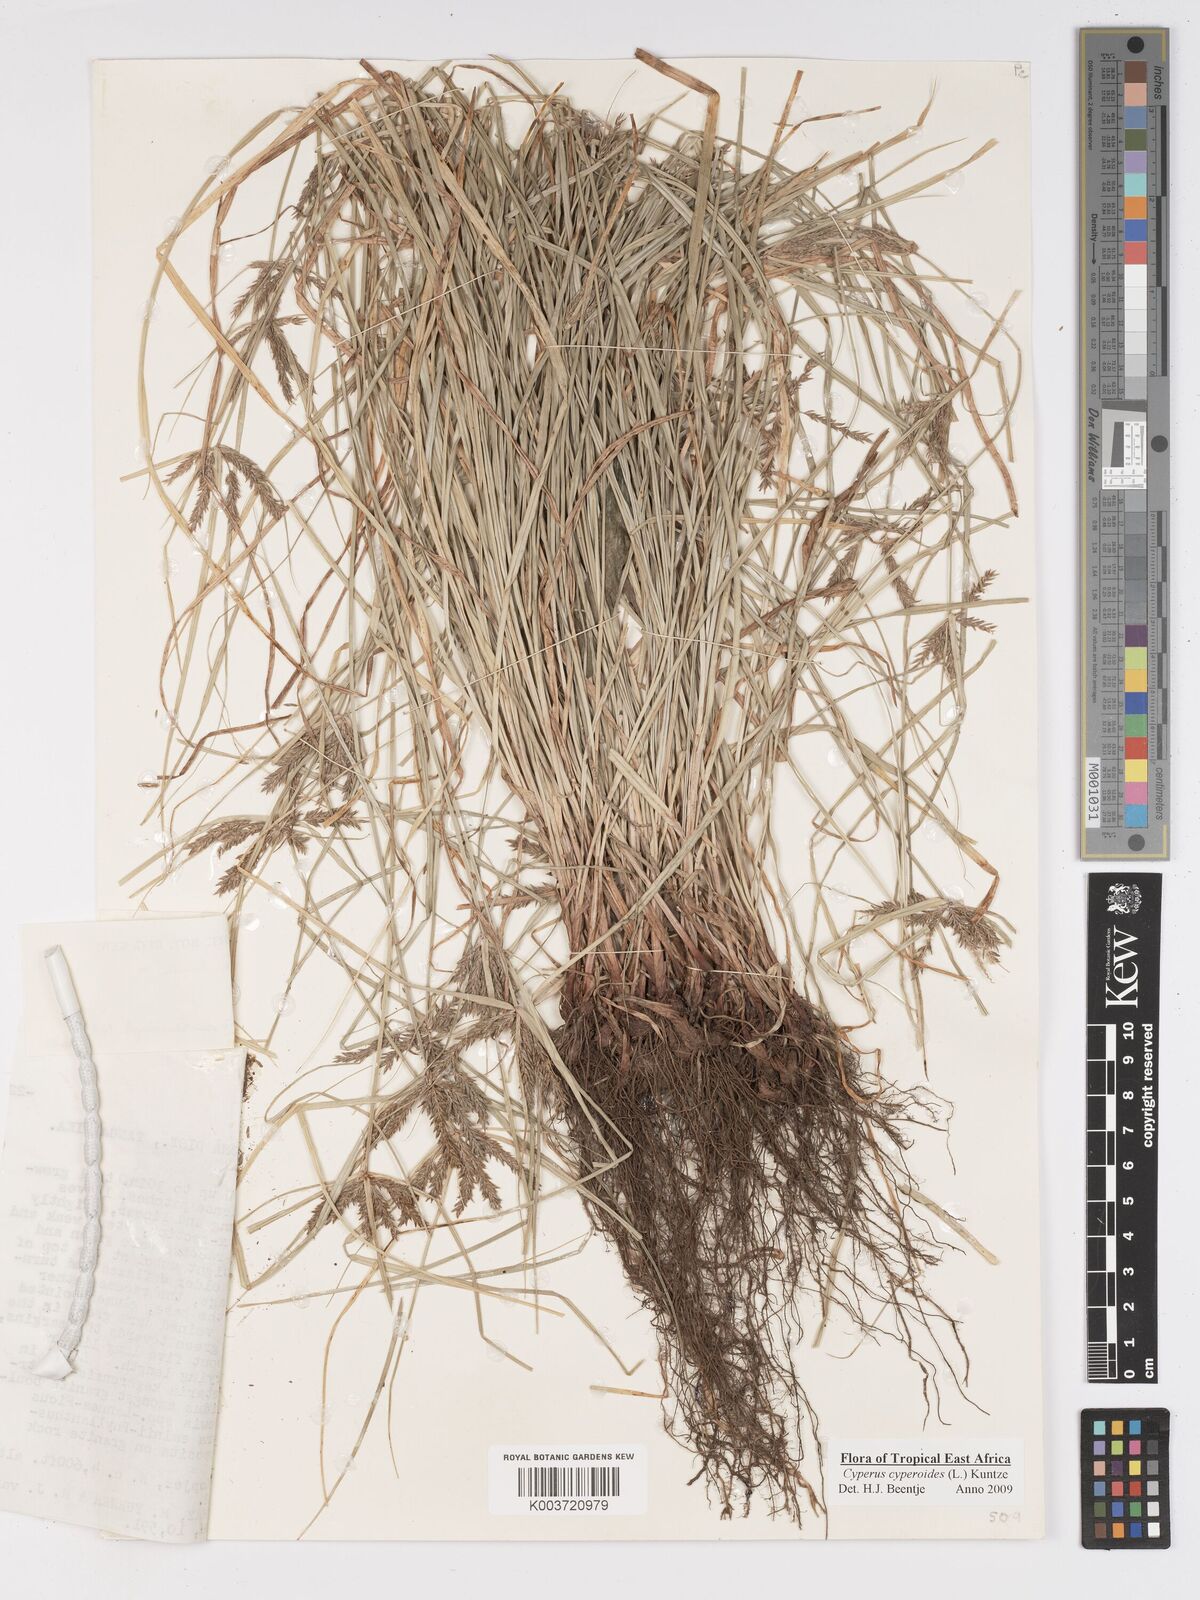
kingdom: Plantae
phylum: Tracheophyta
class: Liliopsida
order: Poales
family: Cyperaceae
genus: Cyperus
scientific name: Cyperus pseudoflavus
